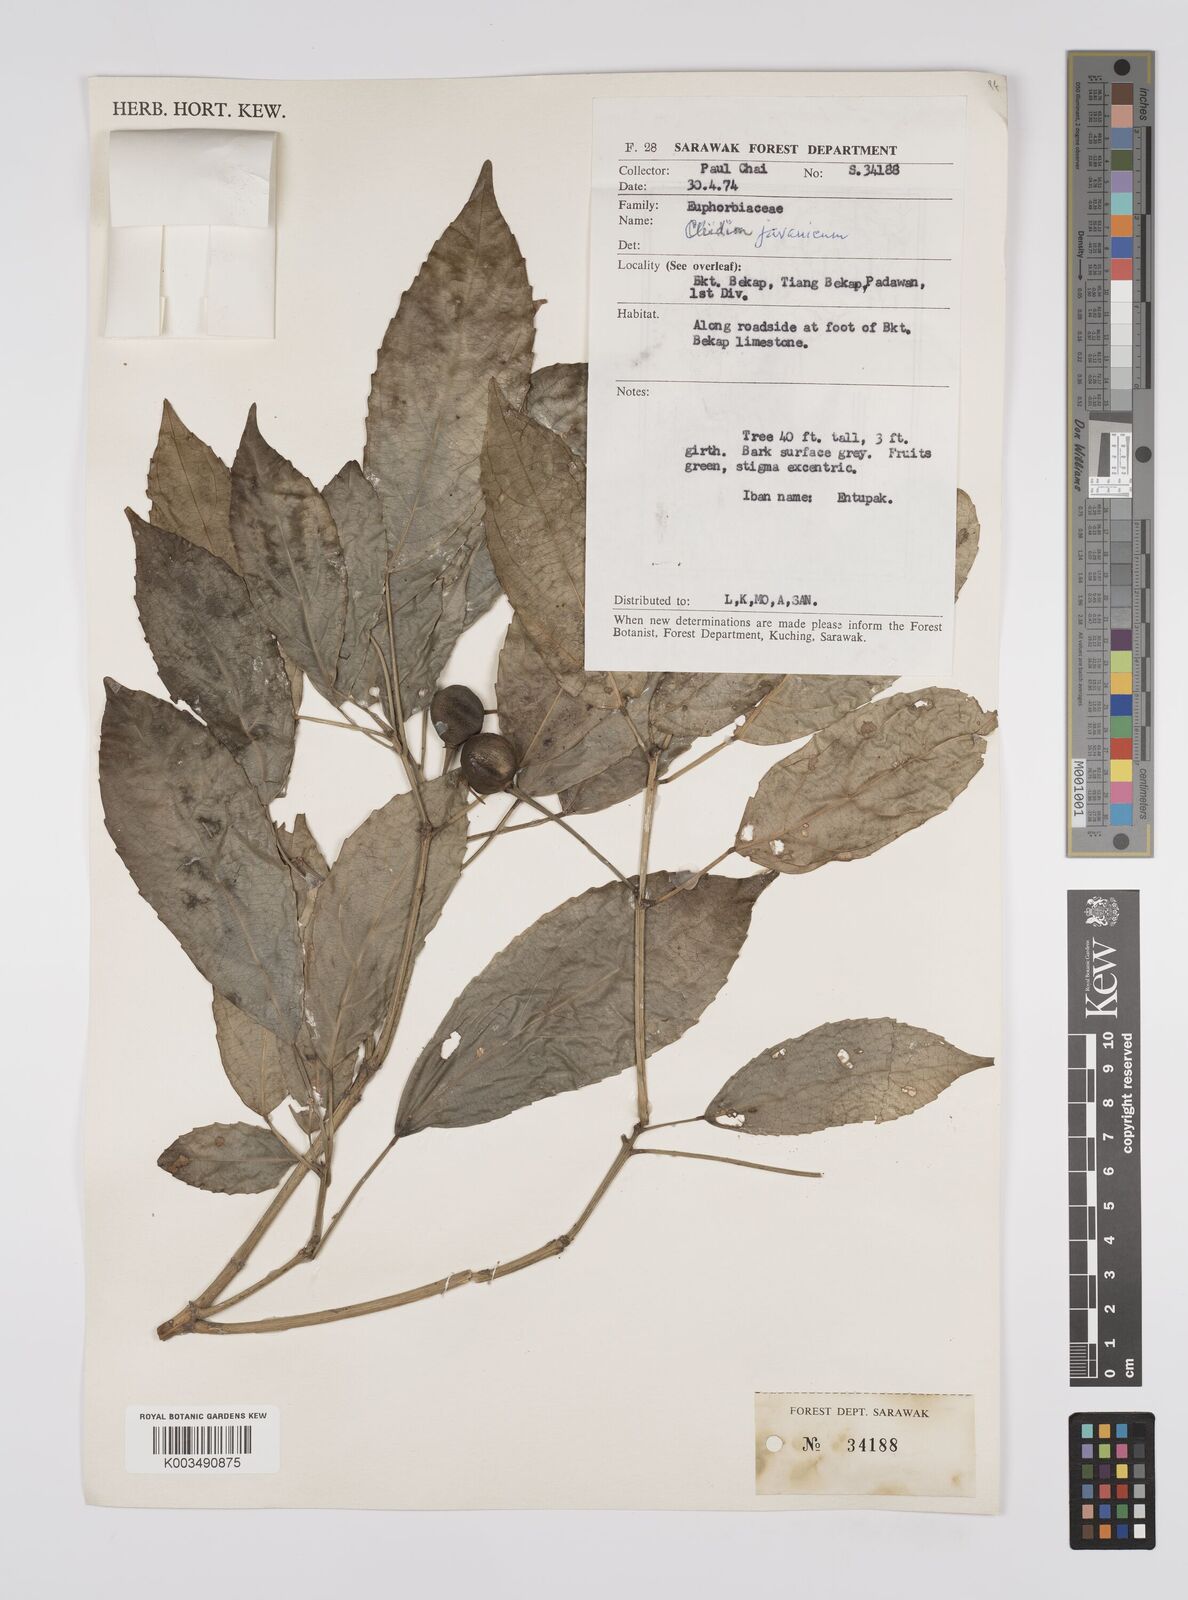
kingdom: Plantae
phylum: Tracheophyta
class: Magnoliopsida
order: Malpighiales
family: Euphorbiaceae
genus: Acalypha
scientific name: Acalypha spiciflora
